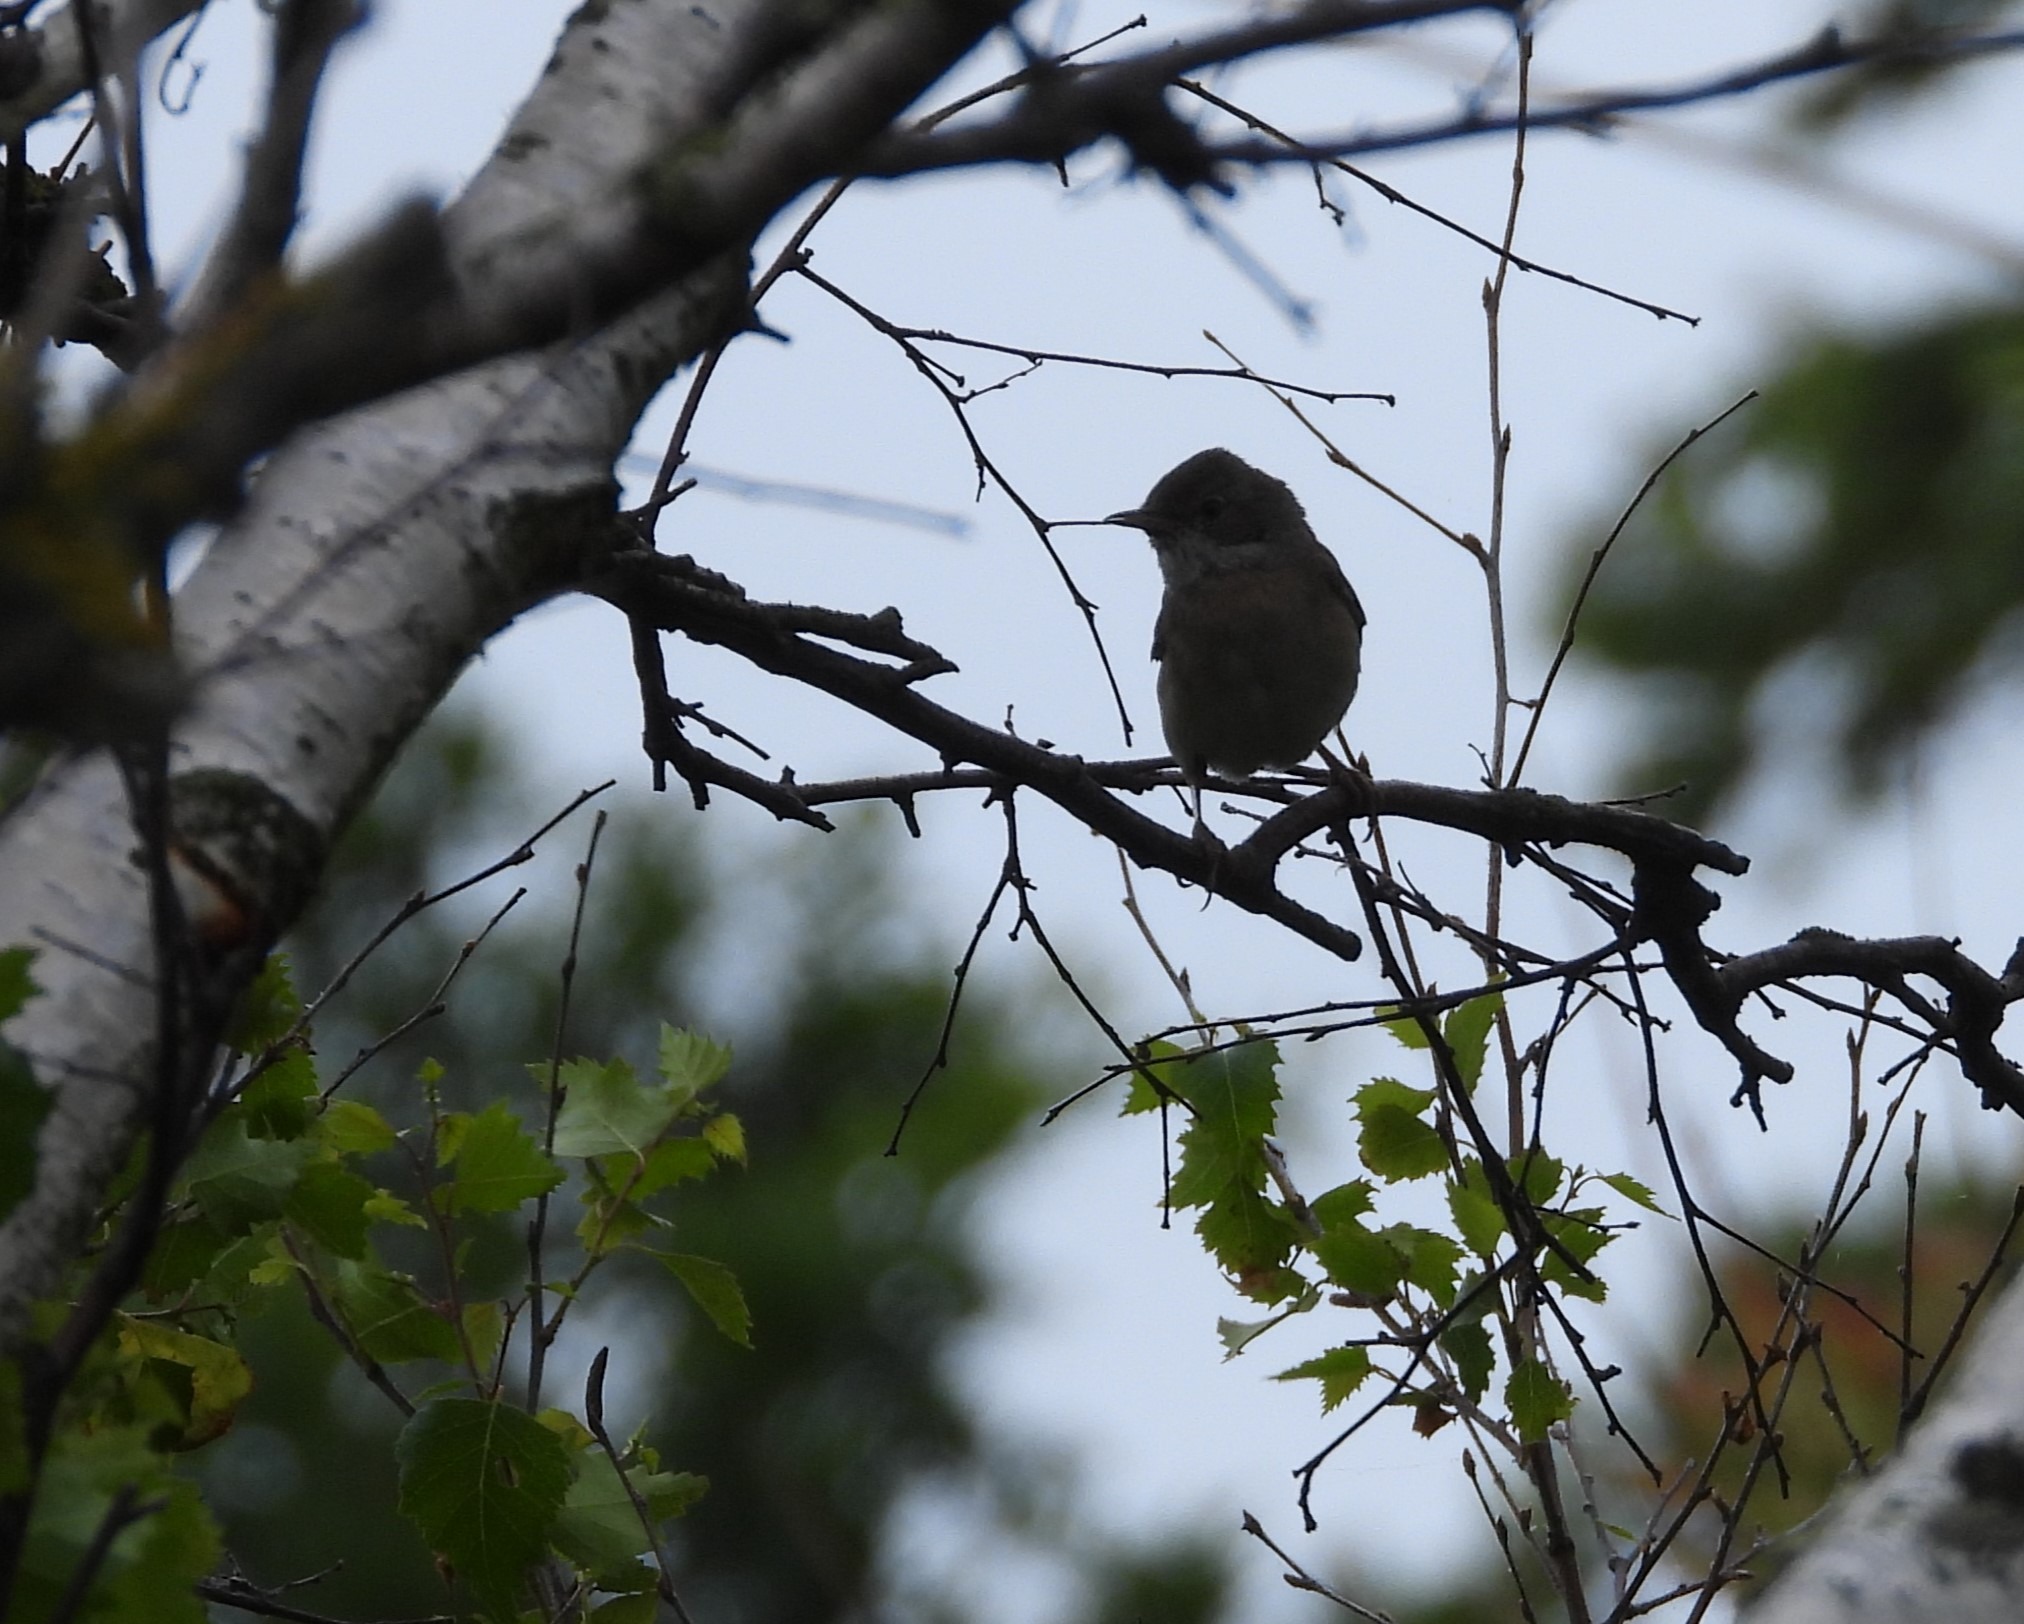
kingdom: Animalia
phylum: Chordata
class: Aves
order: Passeriformes
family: Sylviidae
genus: Sylvia
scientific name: Sylvia communis
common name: Tornsanger
